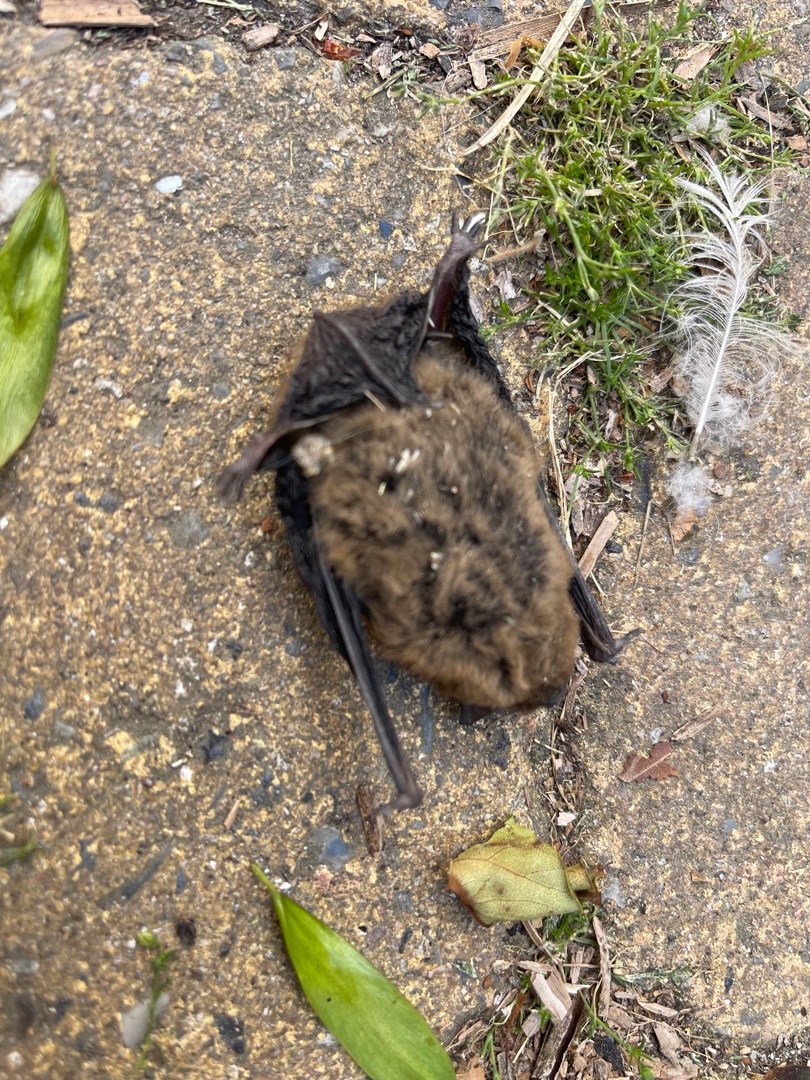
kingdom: Animalia
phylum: Chordata
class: Mammalia
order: Chiroptera
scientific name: Chiroptera
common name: Flagermus
